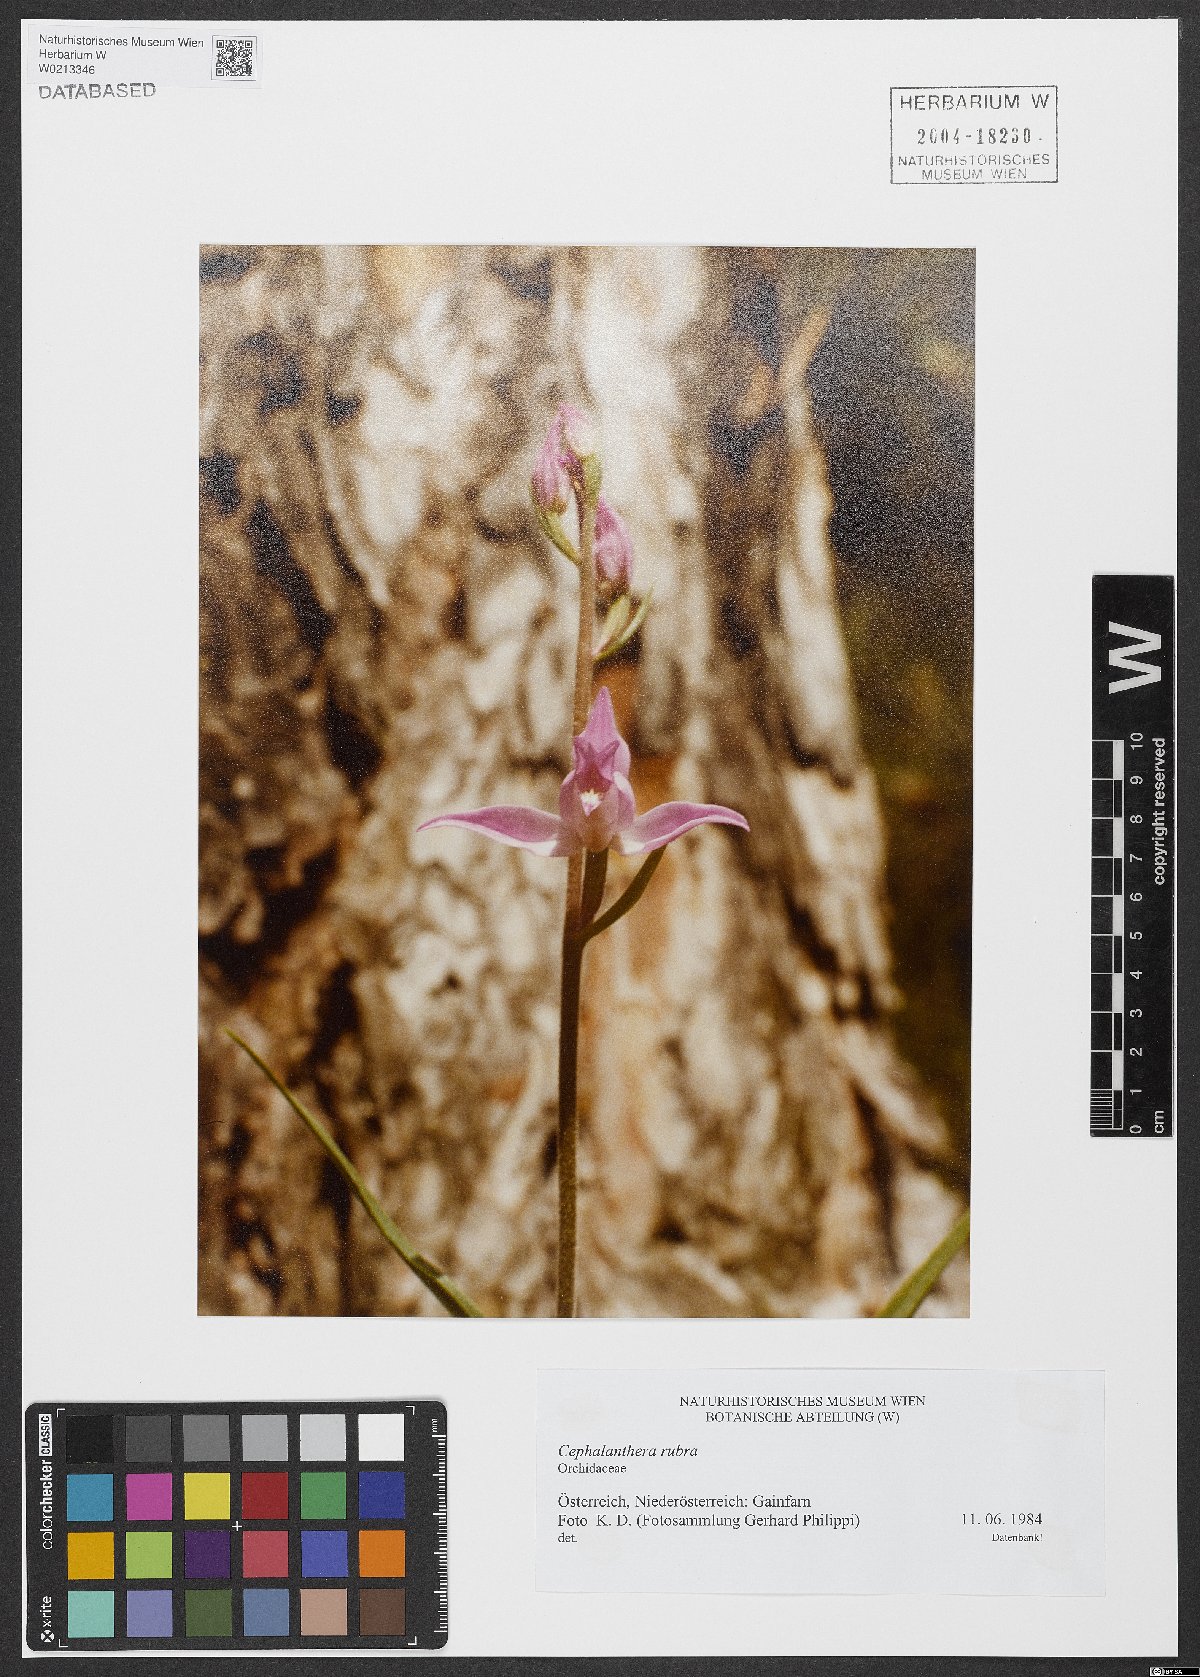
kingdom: Plantae
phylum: Tracheophyta
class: Liliopsida
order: Asparagales
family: Orchidaceae
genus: Cephalanthera
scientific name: Cephalanthera rubra
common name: Red helleborine
